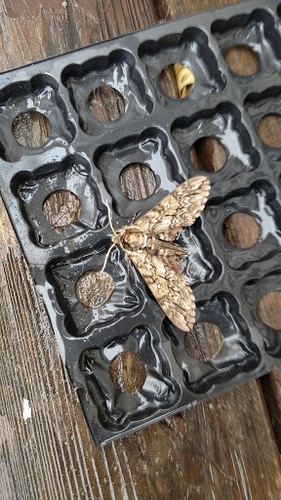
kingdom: Animalia
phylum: Arthropoda
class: Insecta
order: Lepidoptera
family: Sphingidae
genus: Ceratomia
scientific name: Ceratomia undulosa
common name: Waved sphinx
